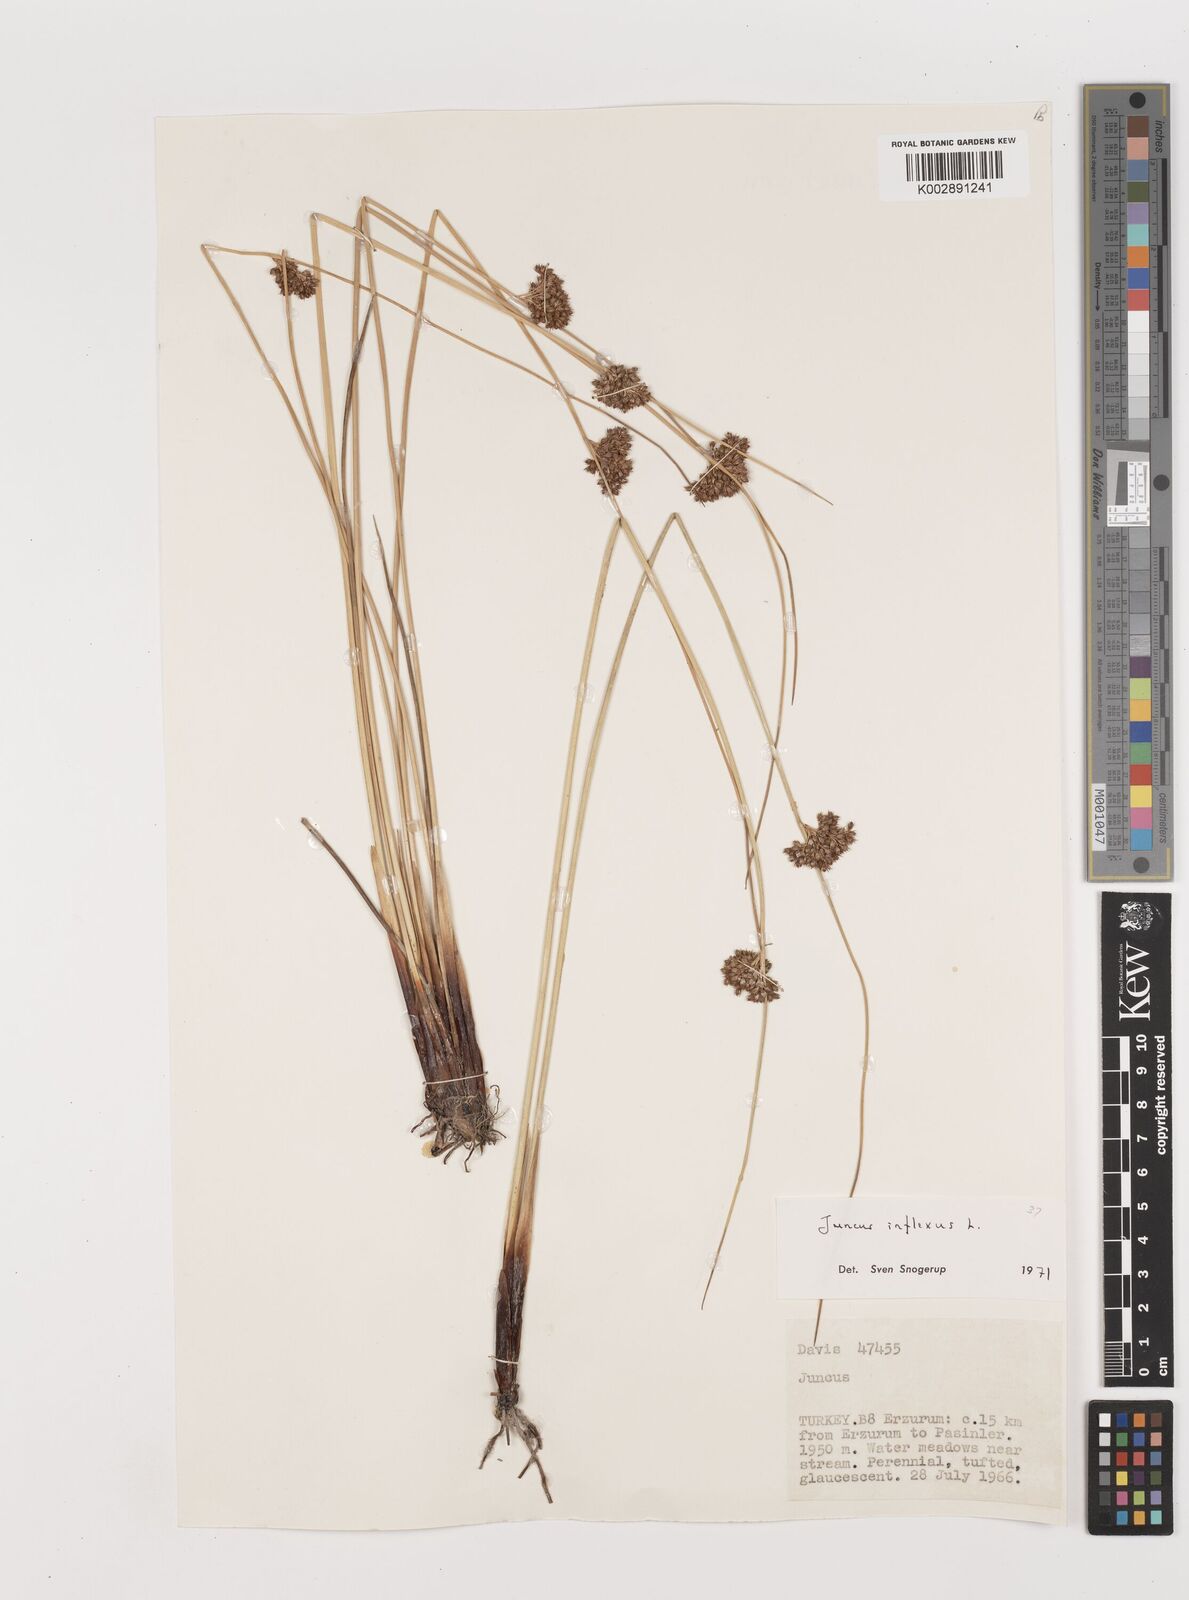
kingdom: Plantae
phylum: Tracheophyta
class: Liliopsida
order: Poales
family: Juncaceae
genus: Juncus
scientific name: Juncus inflexus
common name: Hard rush
